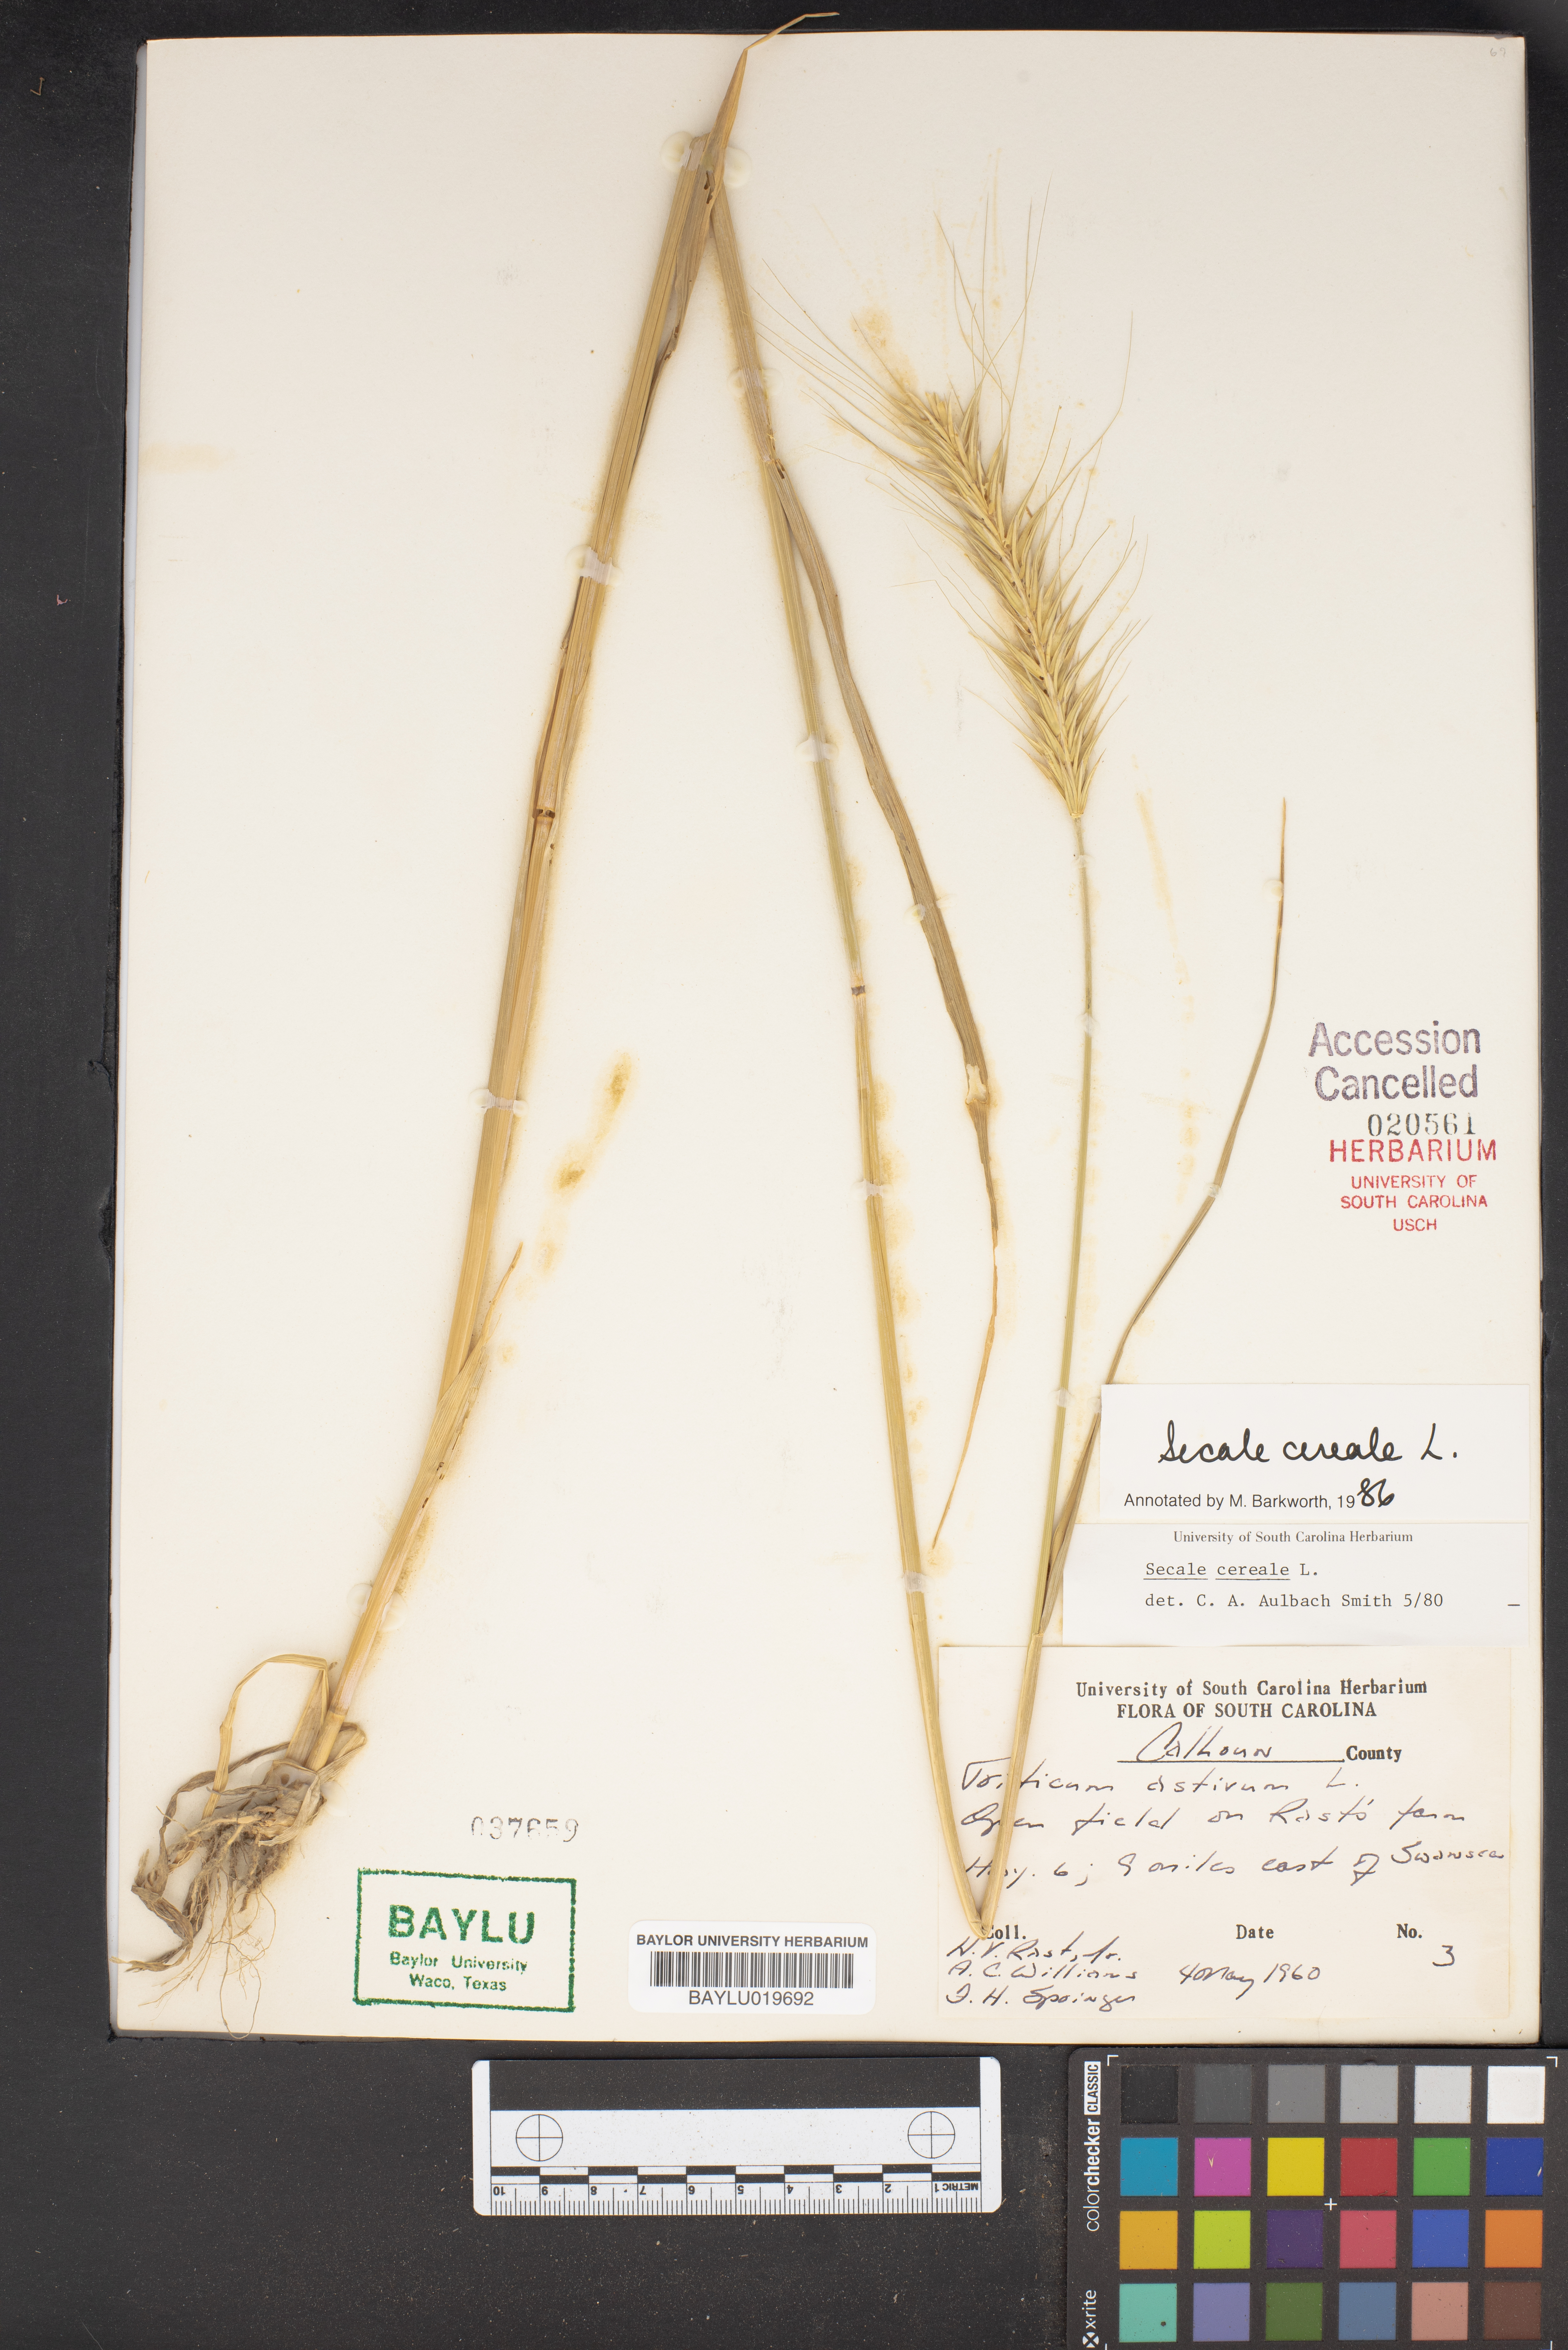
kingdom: Plantae
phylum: Tracheophyta
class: Liliopsida
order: Poales
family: Poaceae
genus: Secale
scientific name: Secale cereale
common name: Rye
